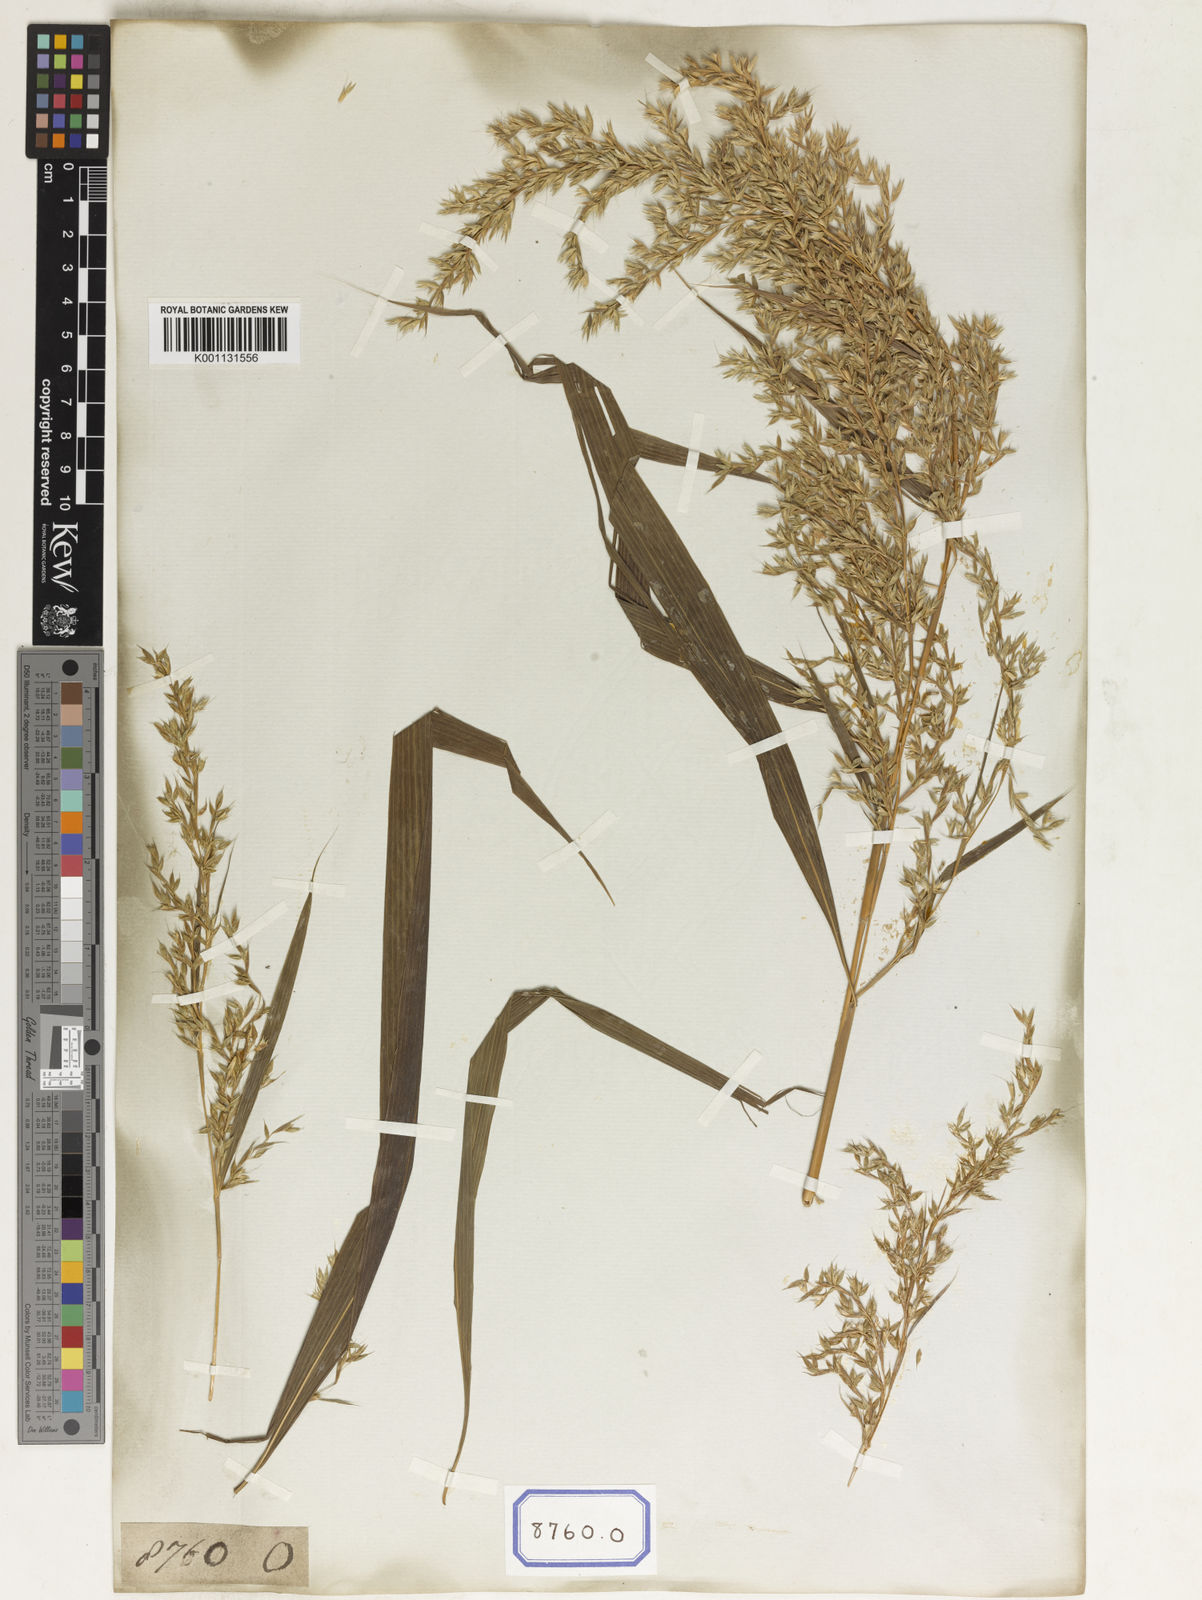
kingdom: Plantae
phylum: Tracheophyta
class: Liliopsida
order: Poales
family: Poaceae
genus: Apluda
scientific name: Apluda
